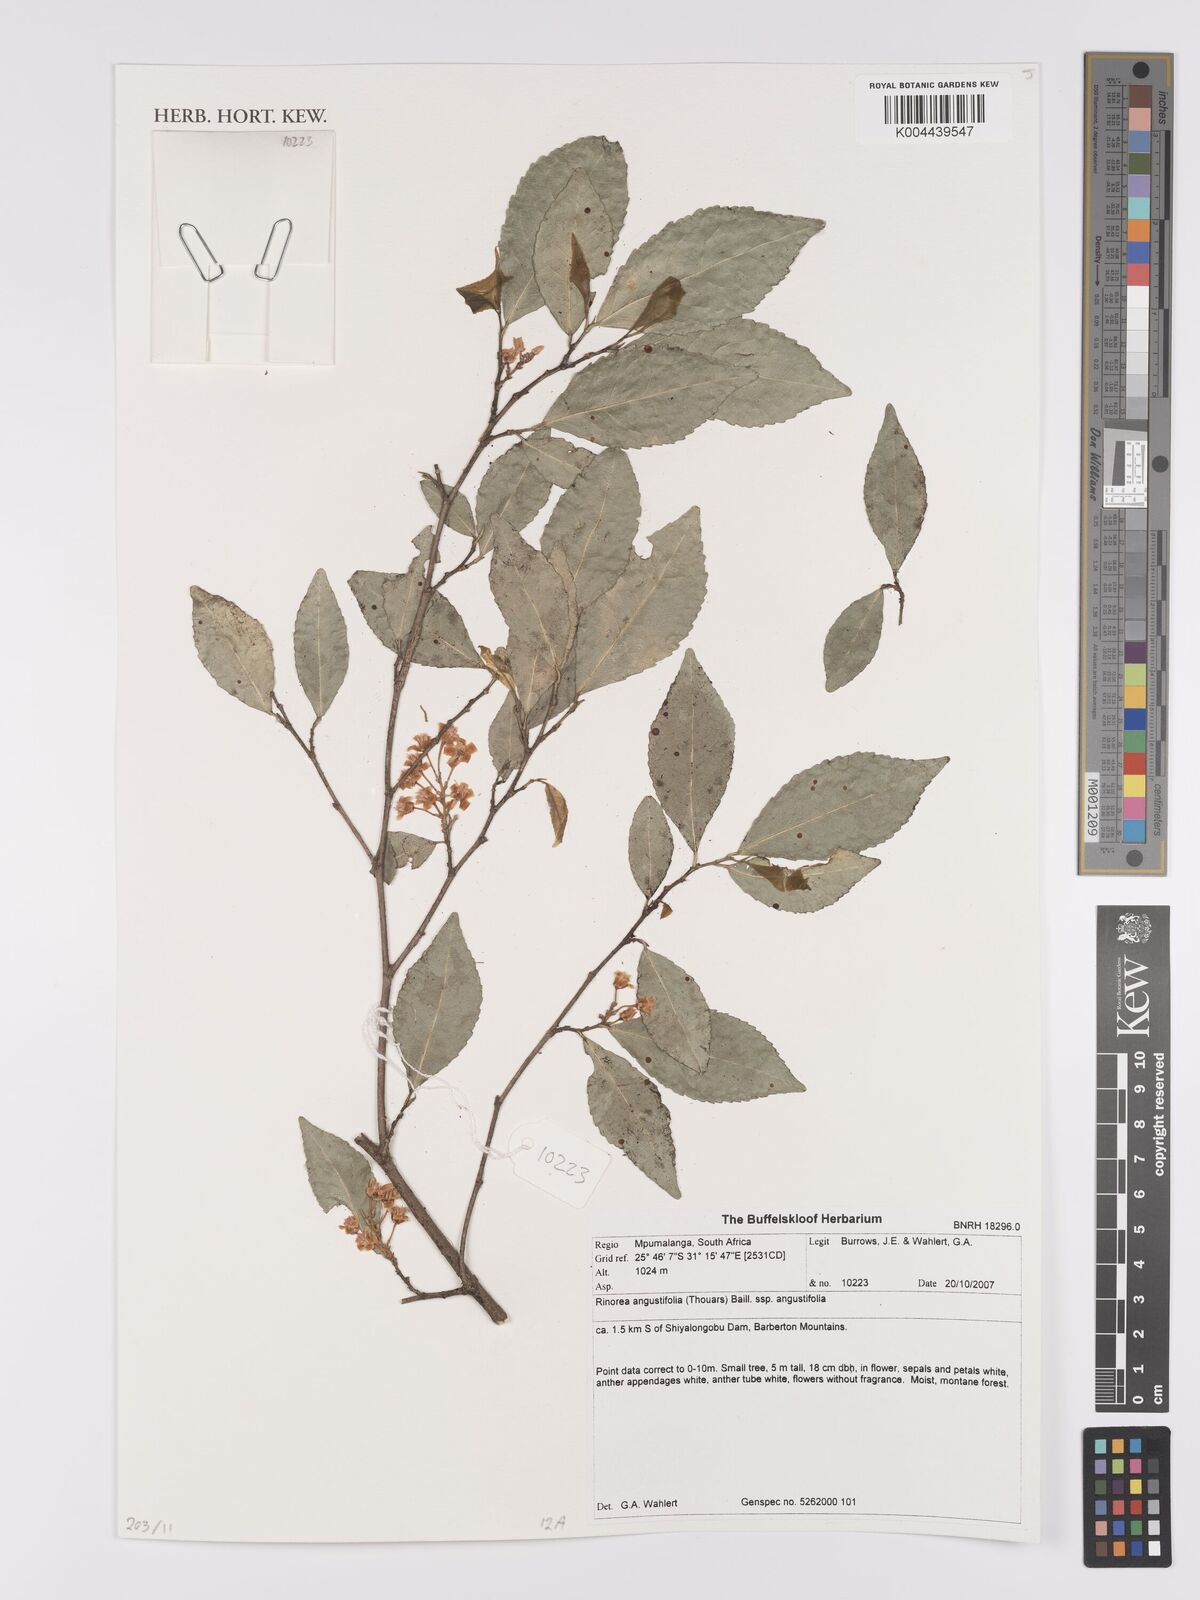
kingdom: Plantae
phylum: Tracheophyta
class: Magnoliopsida
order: Malpighiales
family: Violaceae
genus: Rinorea
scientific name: Rinorea angustifolia
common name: White violet-bush
